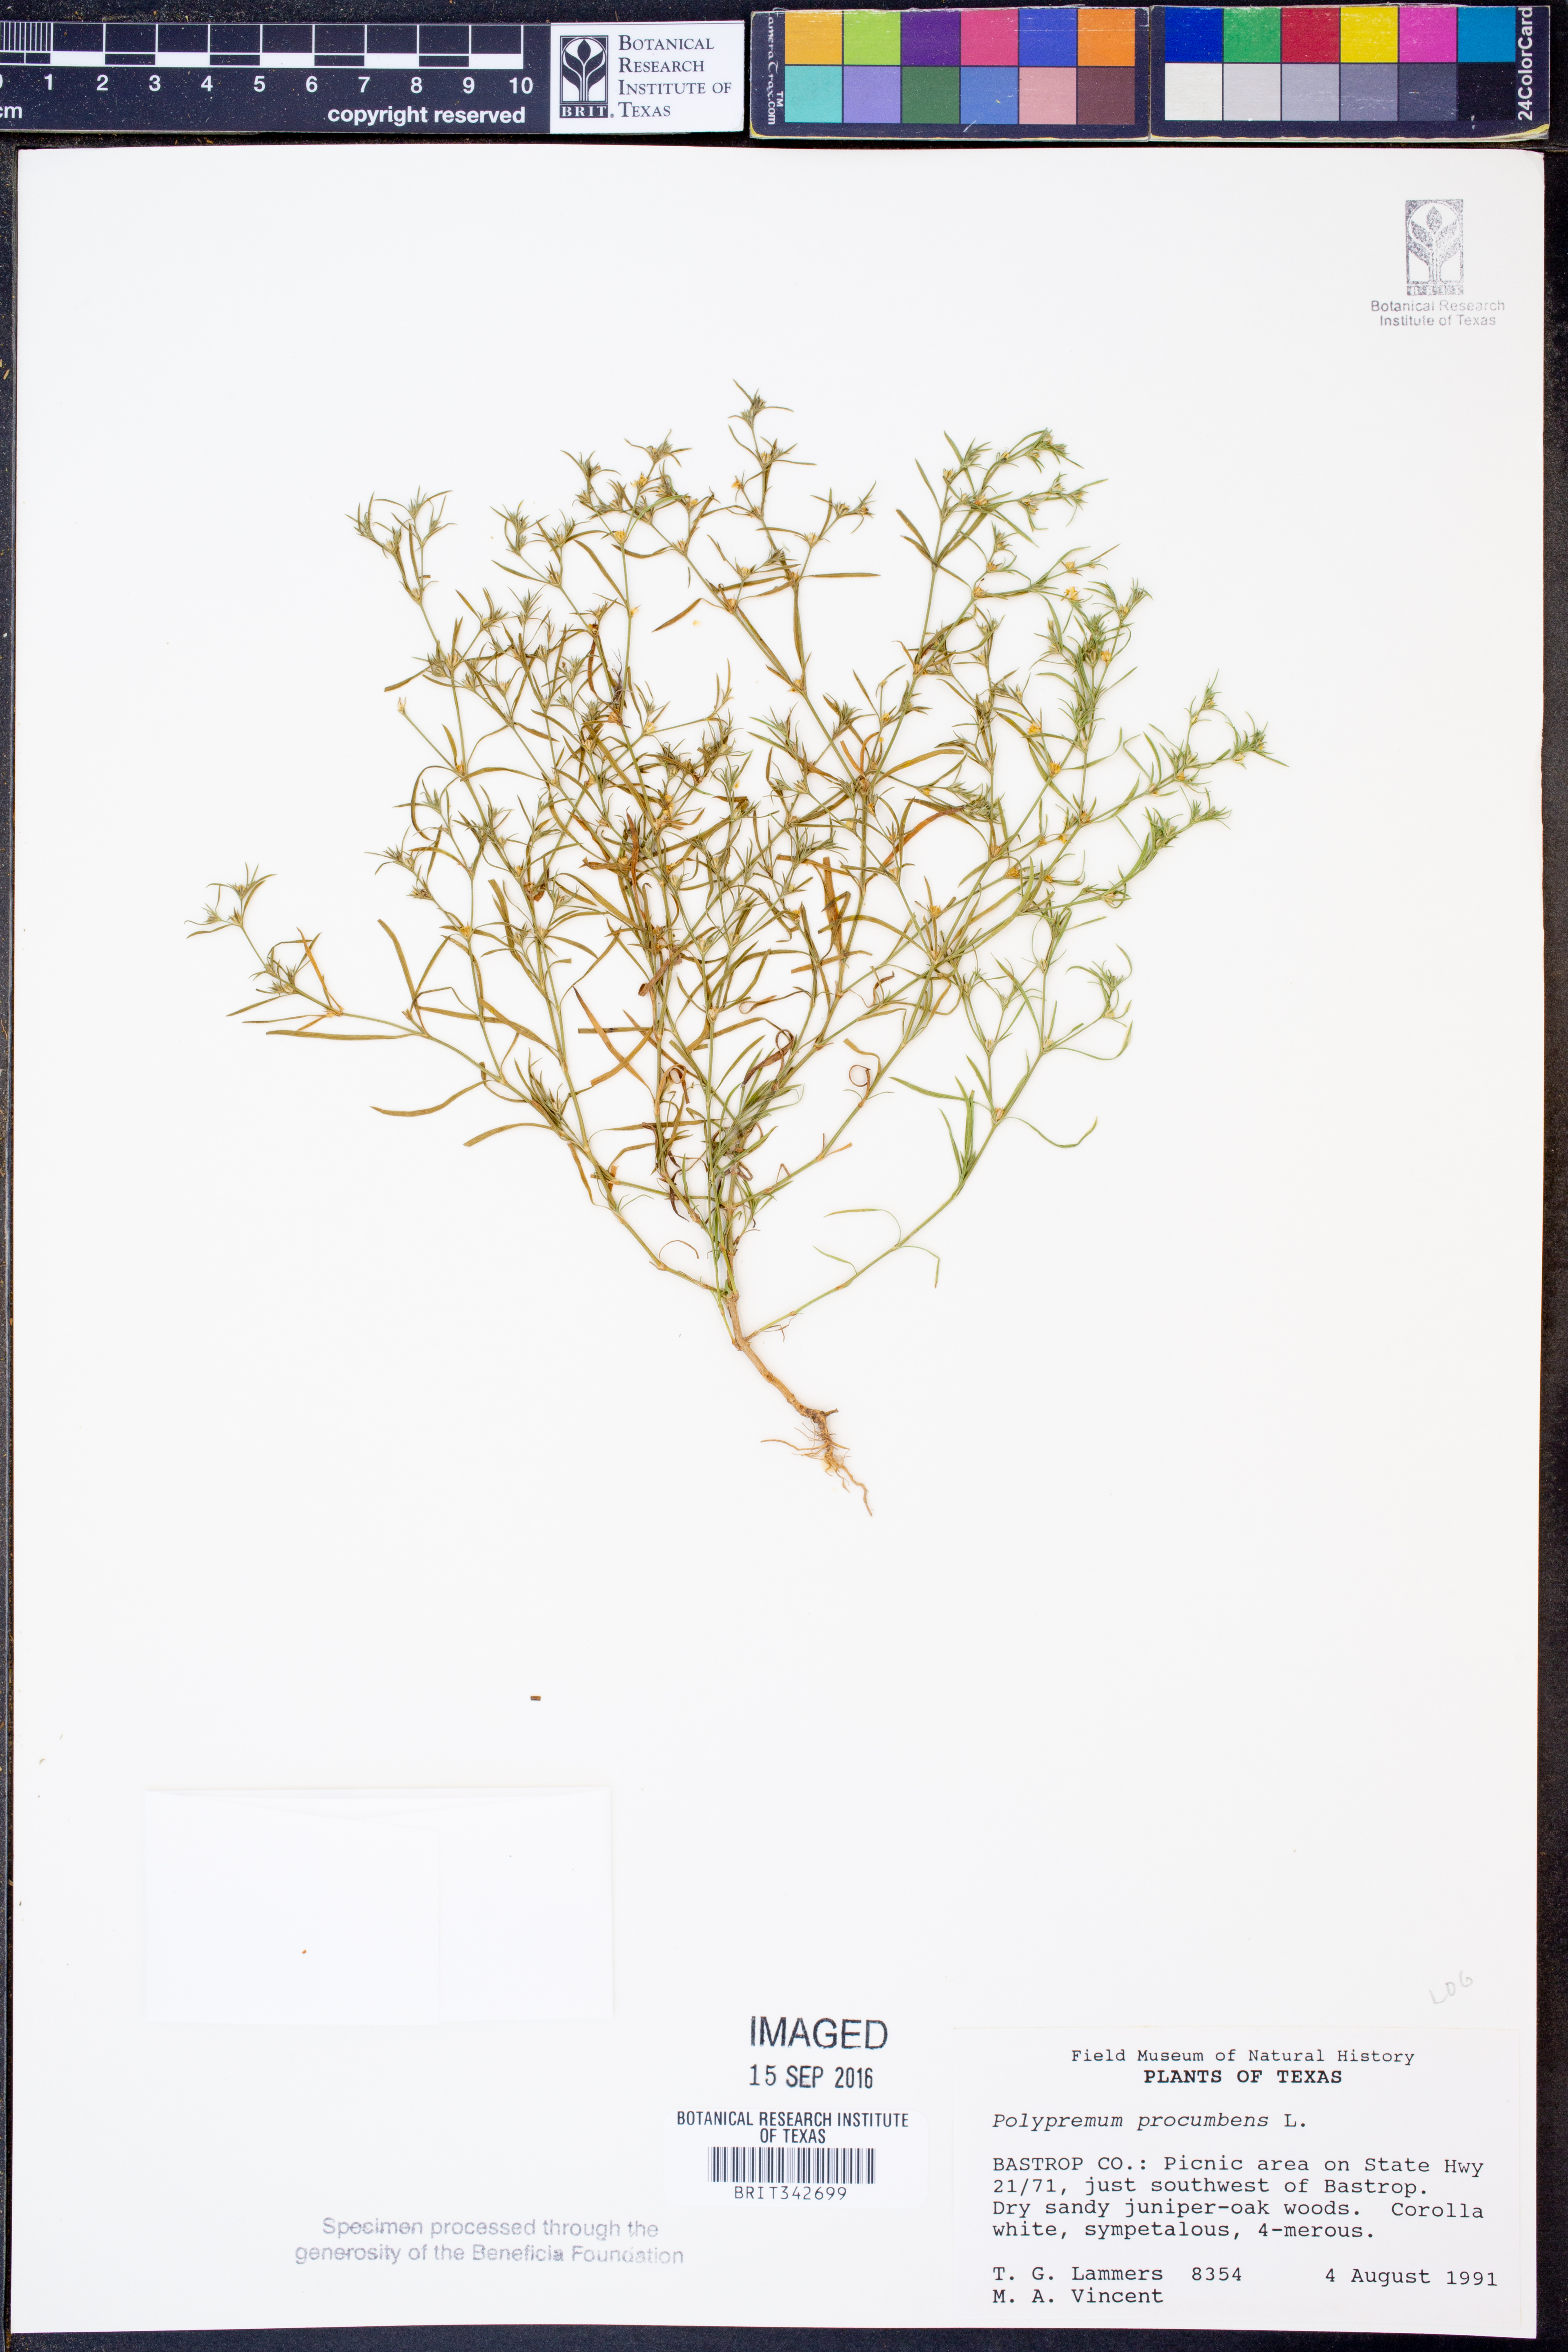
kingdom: Plantae
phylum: Tracheophyta
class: Magnoliopsida
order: Lamiales
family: Tetrachondraceae
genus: Polypremum
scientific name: Polypremum procumbens
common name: Juniper-leaf
